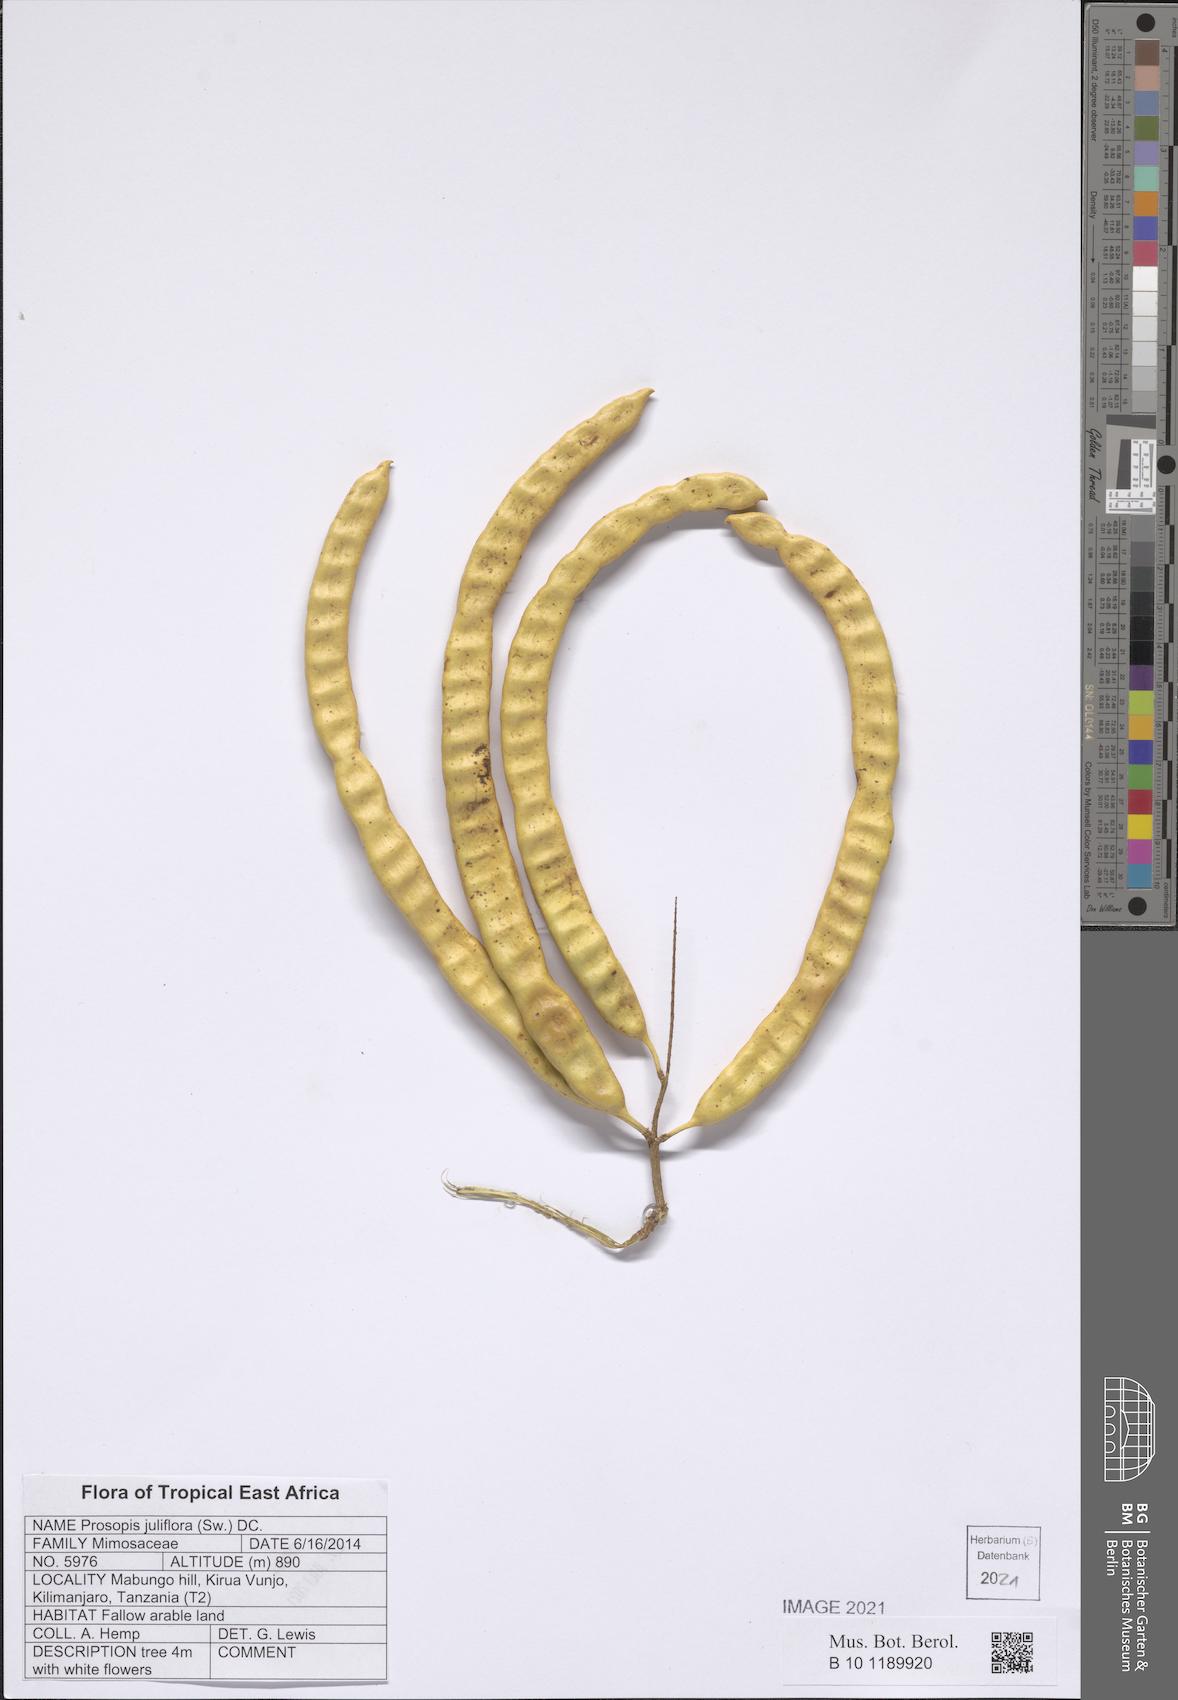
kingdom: Plantae
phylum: Tracheophyta
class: Magnoliopsida
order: Fabales
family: Fabaceae
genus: Prosopis
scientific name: Prosopis juliflora
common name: Mesquite
